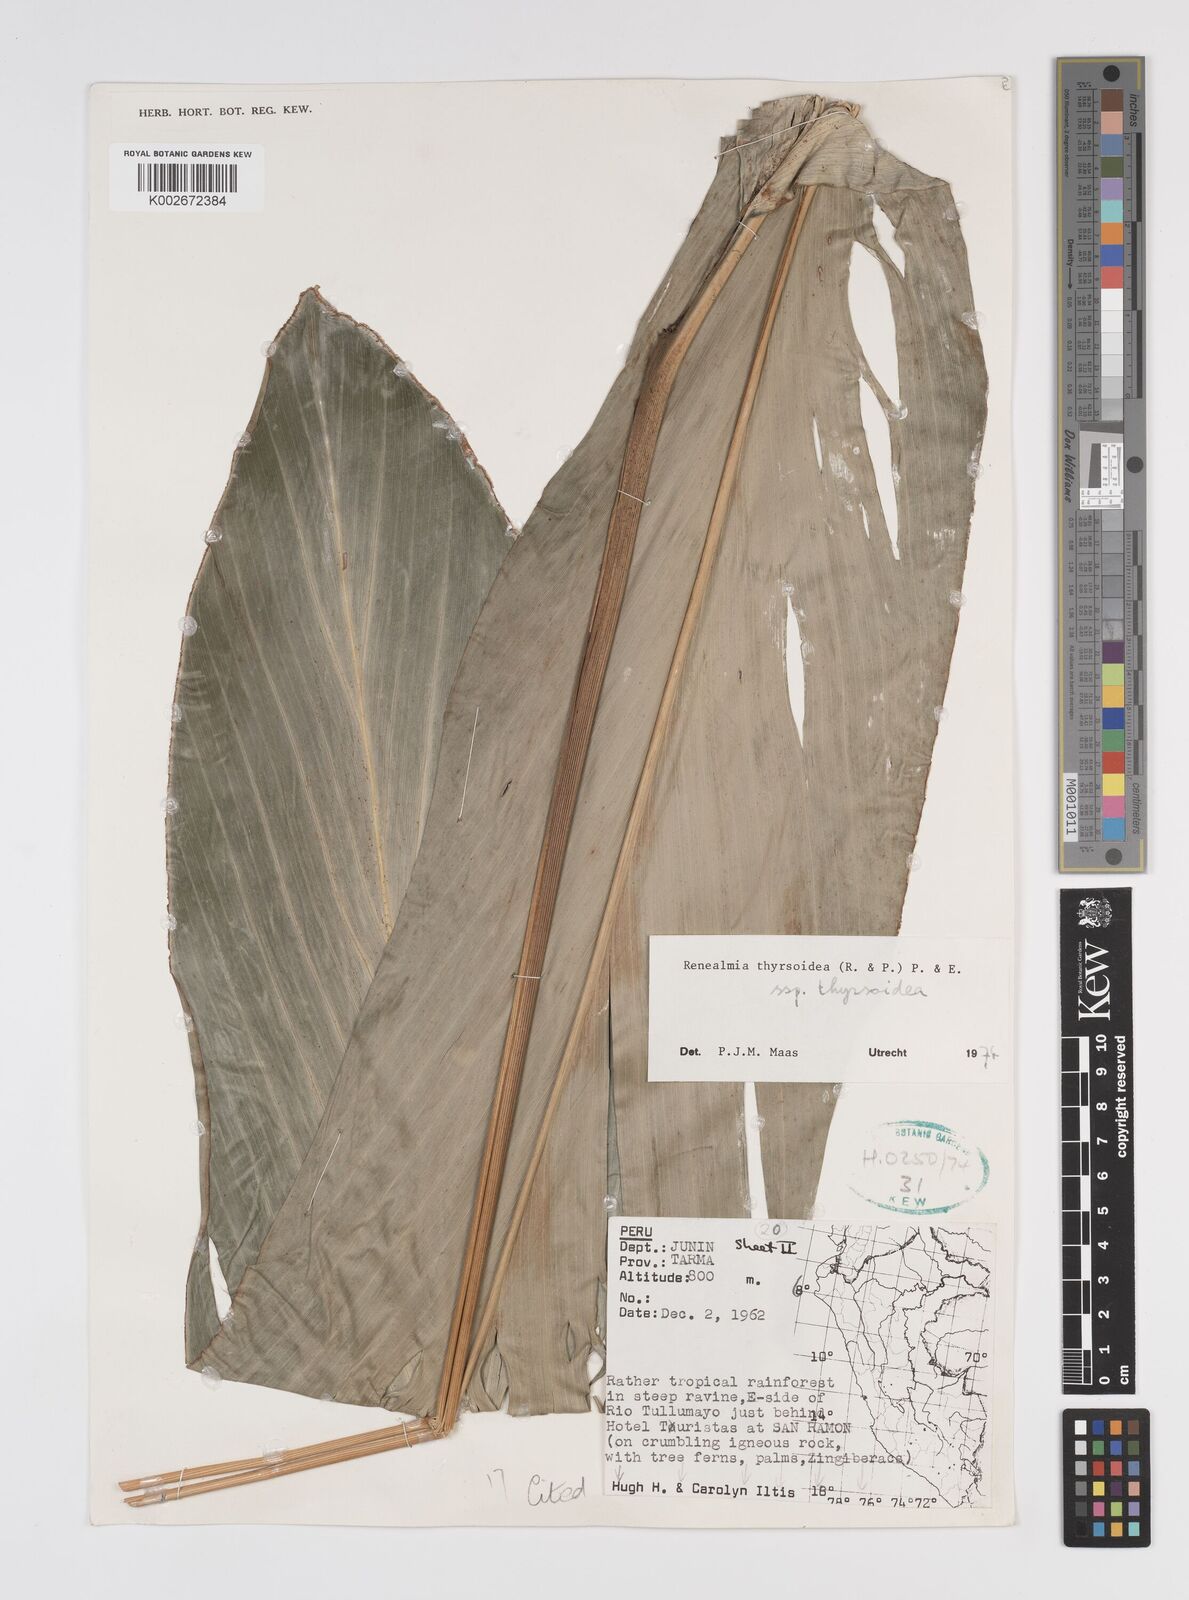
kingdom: Plantae
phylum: Tracheophyta
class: Liliopsida
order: Zingiberales
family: Zingiberaceae
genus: Renealmia
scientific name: Renealmia thyrsoidea
